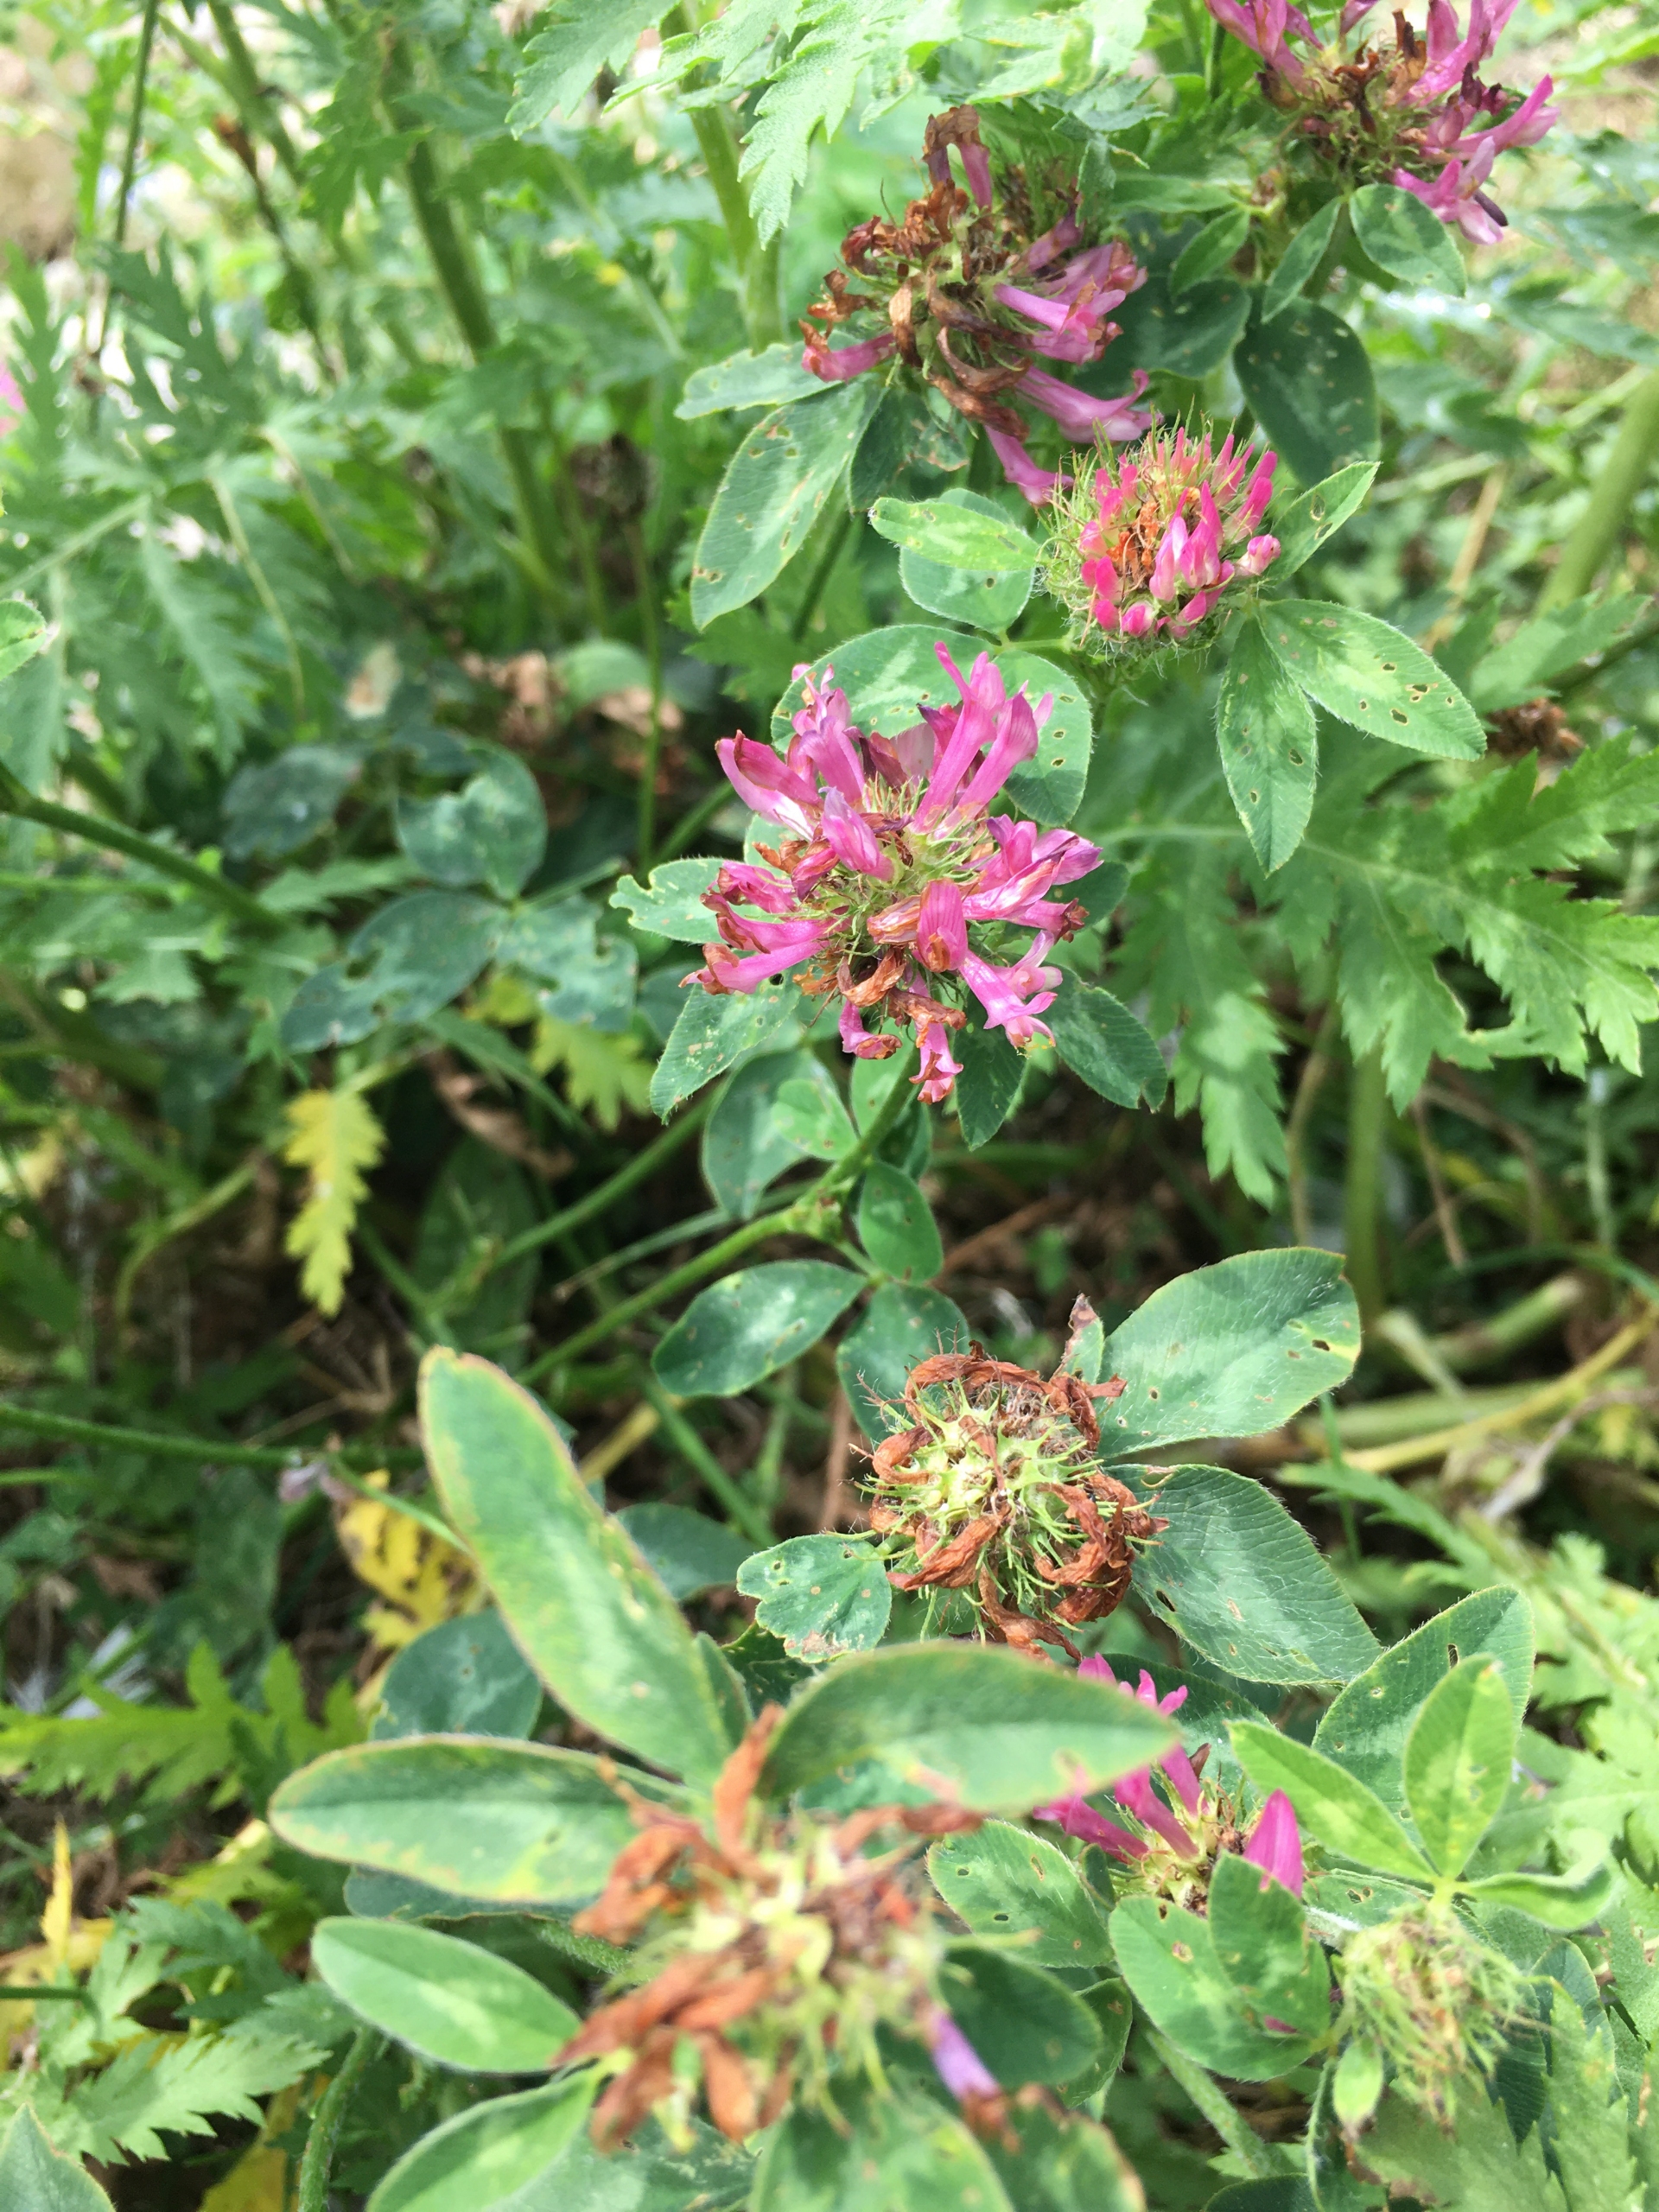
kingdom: Plantae
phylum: Tracheophyta
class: Magnoliopsida
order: Fabales
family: Fabaceae
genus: Trifolium
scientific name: Trifolium pratense
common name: Rød-kløver
